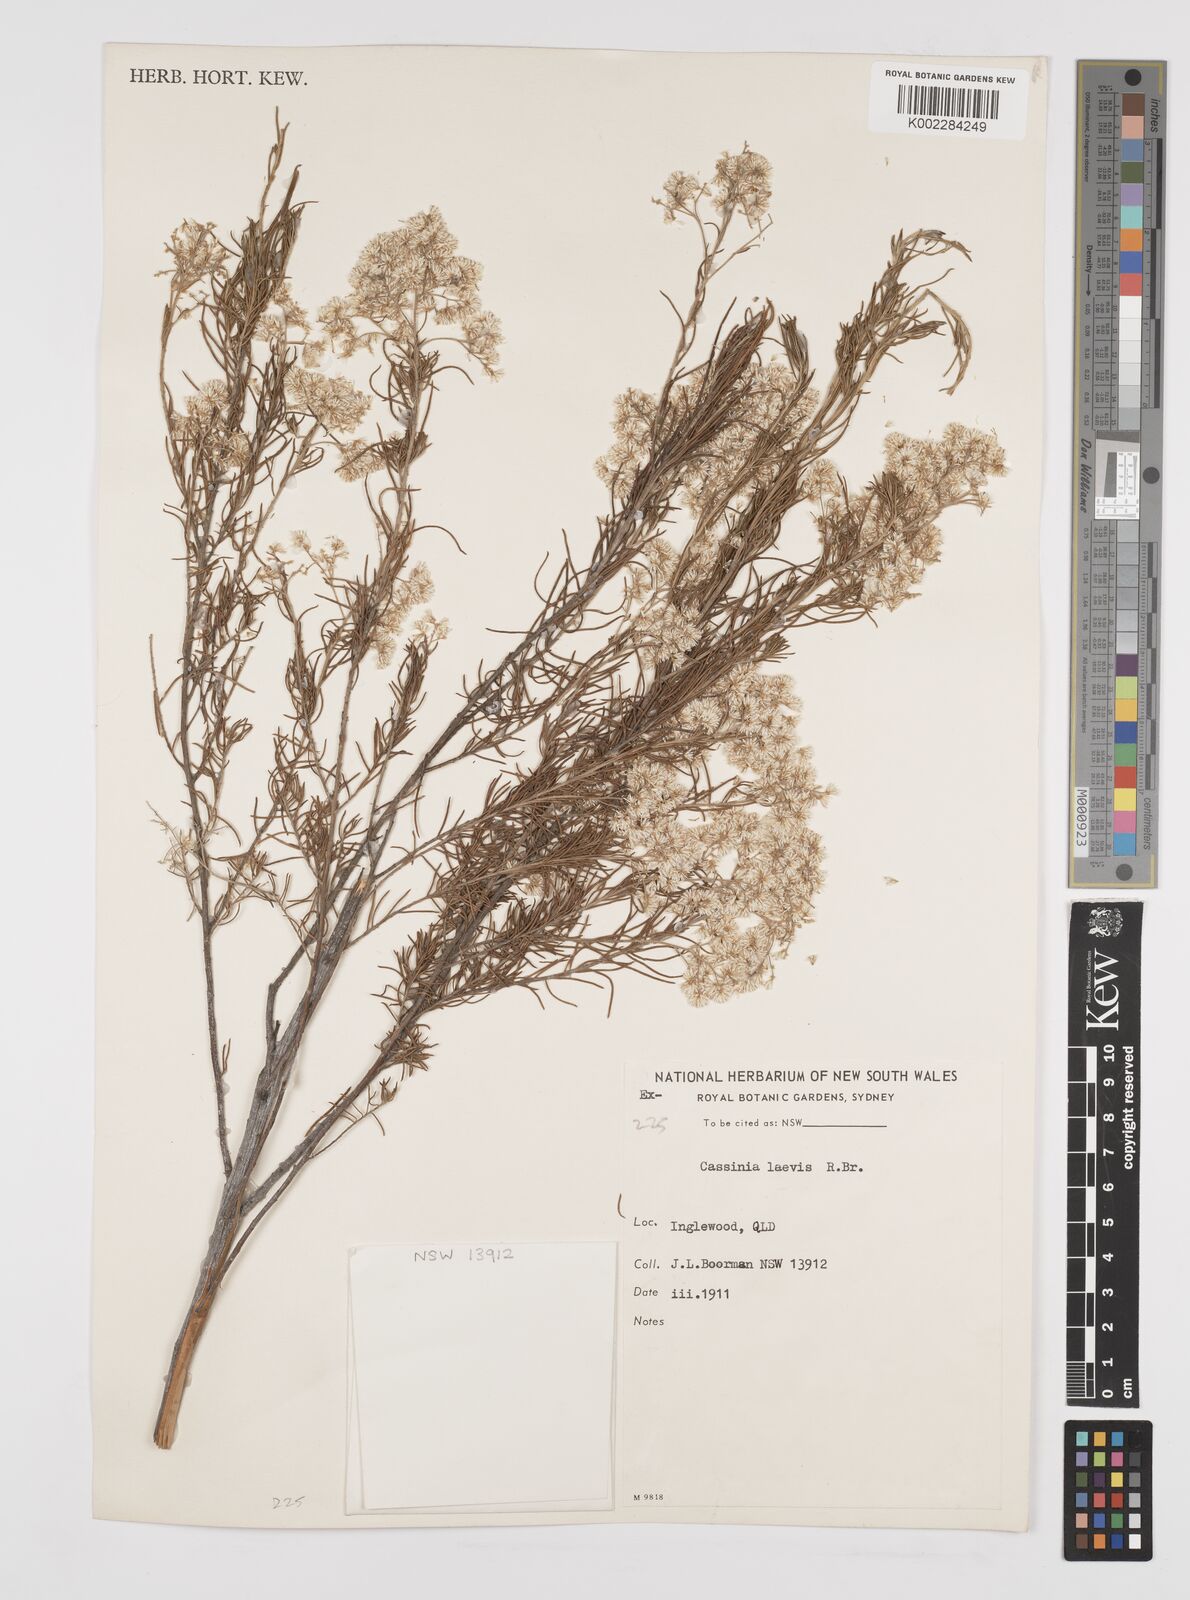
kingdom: Plantae
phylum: Tracheophyta
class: Magnoliopsida
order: Asterales
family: Asteraceae
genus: Cassinia
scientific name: Cassinia laevis
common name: Coughbush
